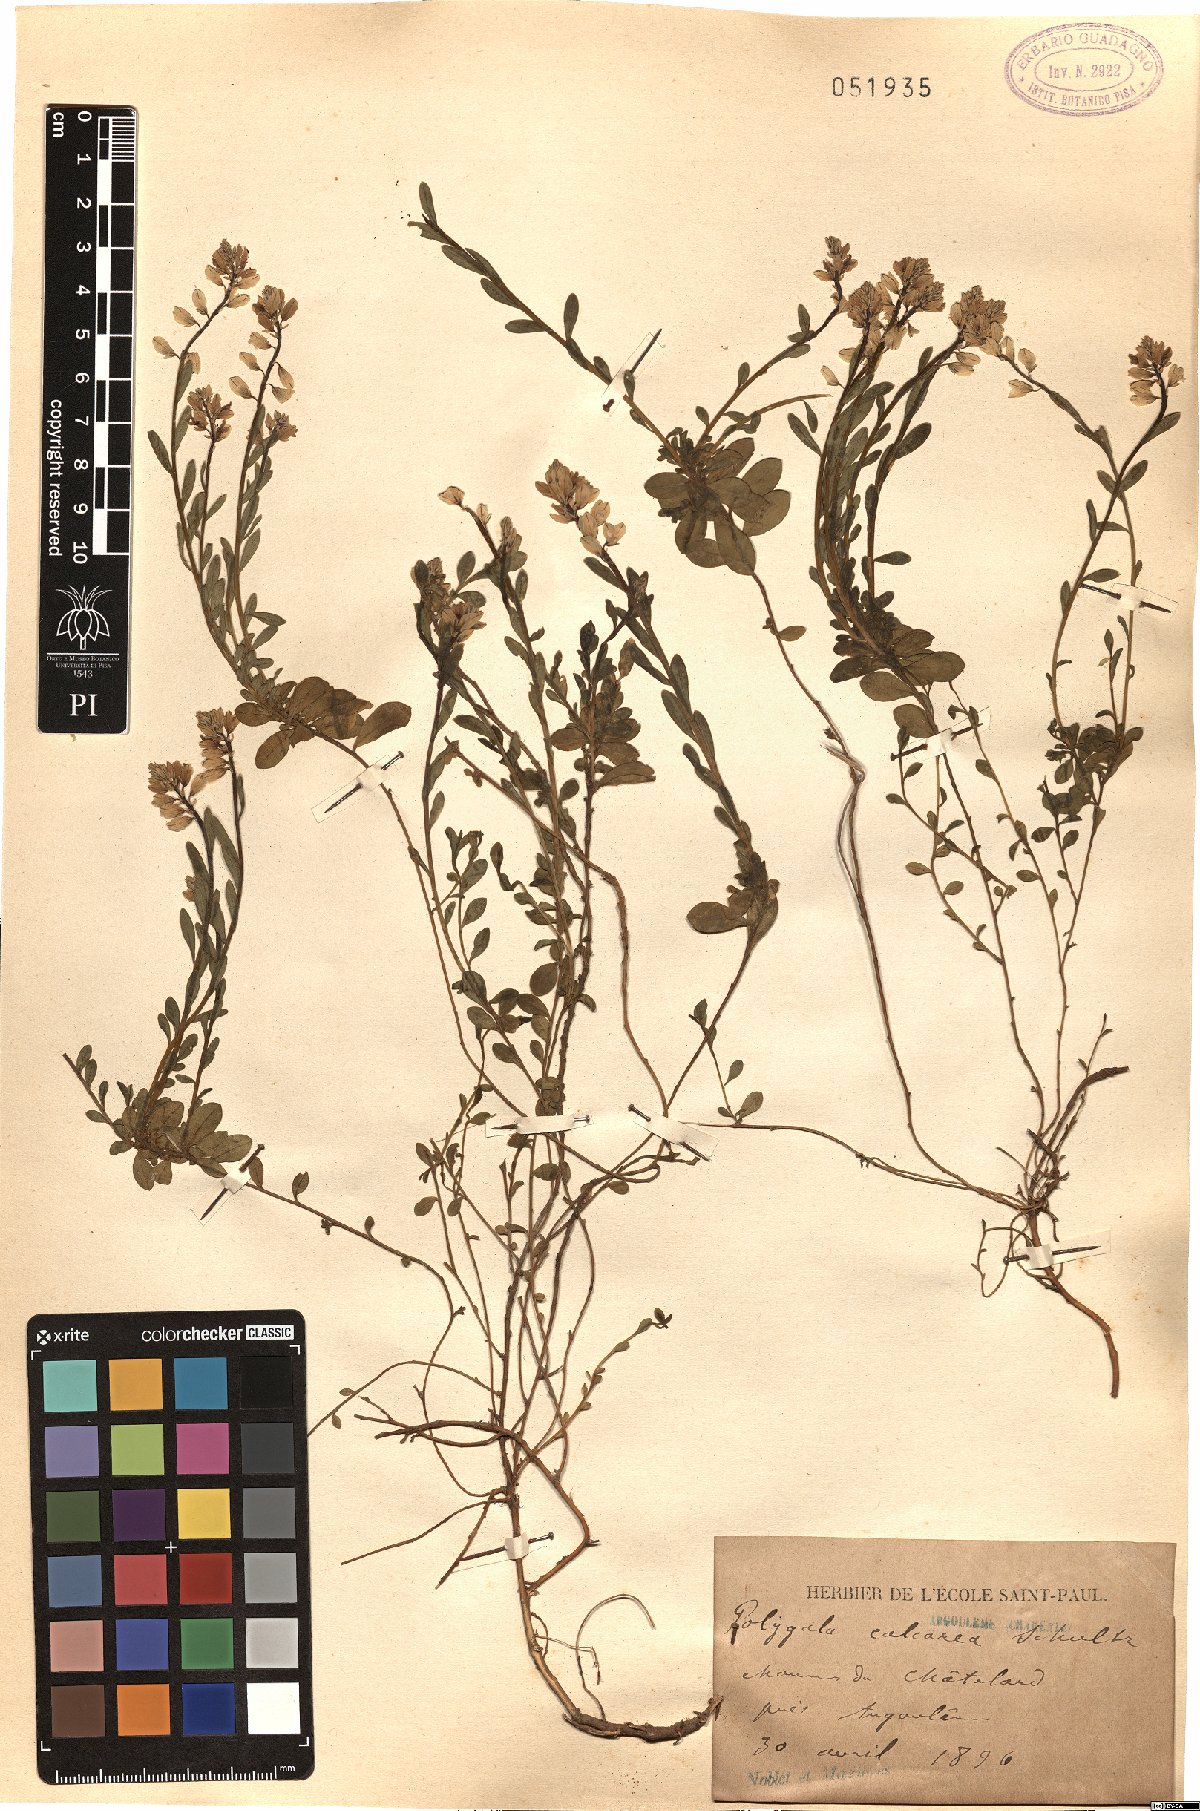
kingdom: Plantae
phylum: Tracheophyta
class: Magnoliopsida
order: Fabales
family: Polygalaceae
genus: Polygala
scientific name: Polygala calcarea
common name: Chalk milkwort
